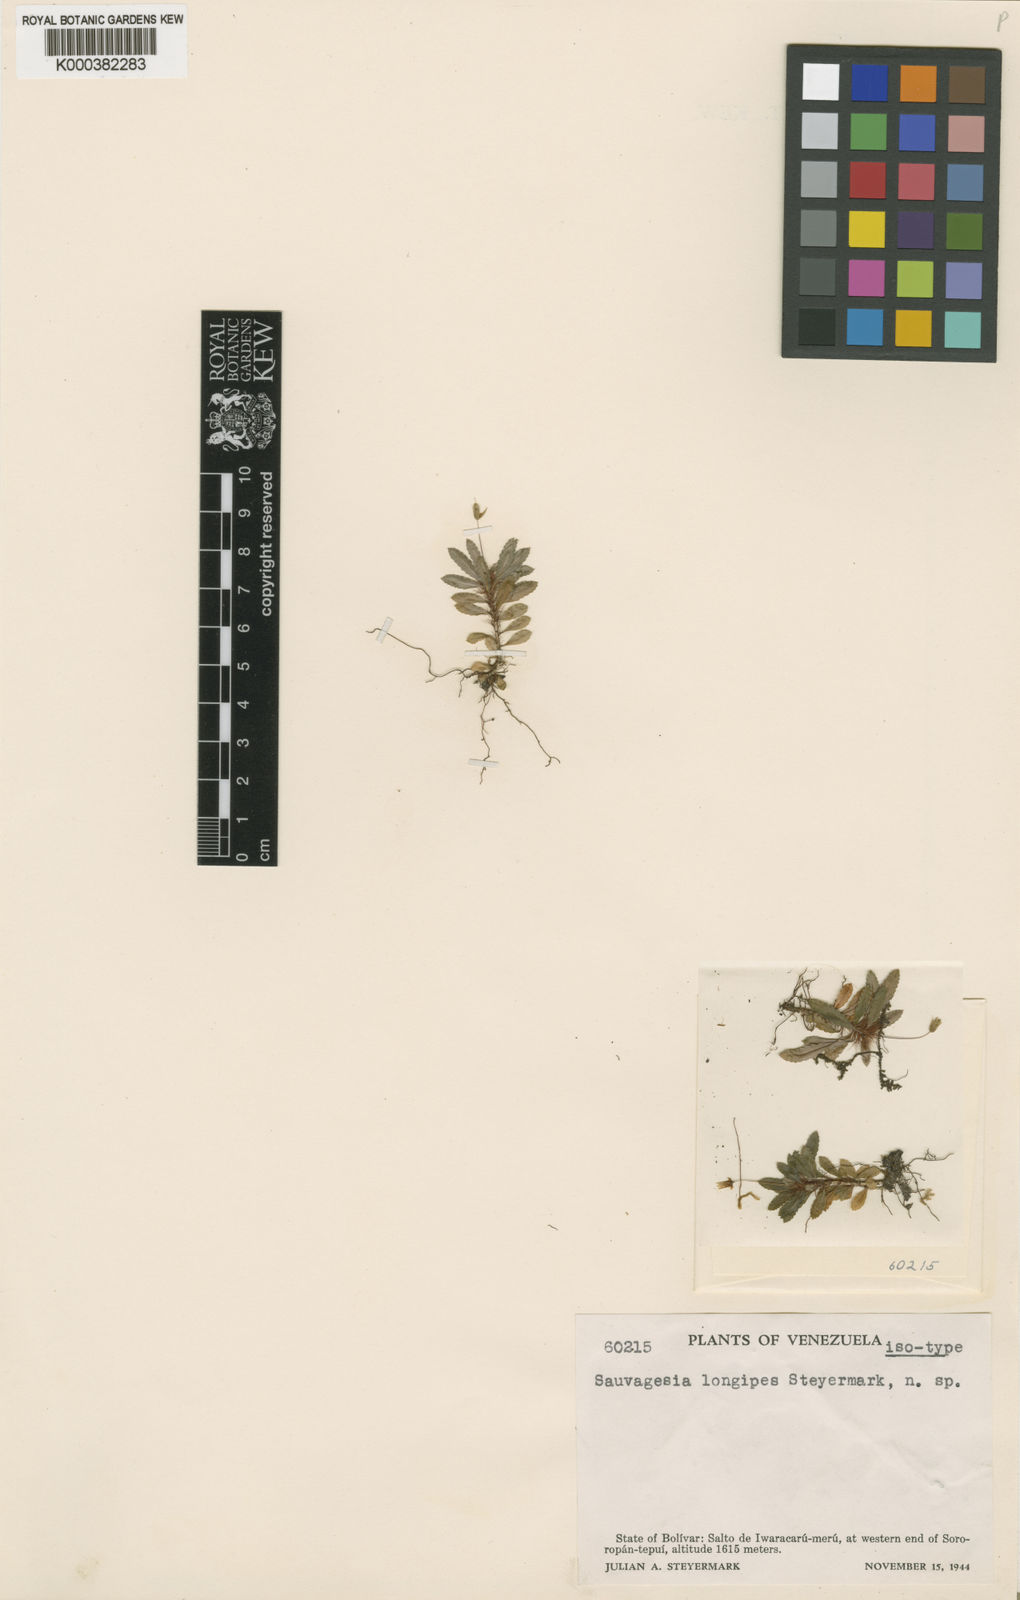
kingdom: Plantae
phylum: Tracheophyta
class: Magnoliopsida
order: Malpighiales
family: Ochnaceae
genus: Sauvagesia
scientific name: Sauvagesia longipes
